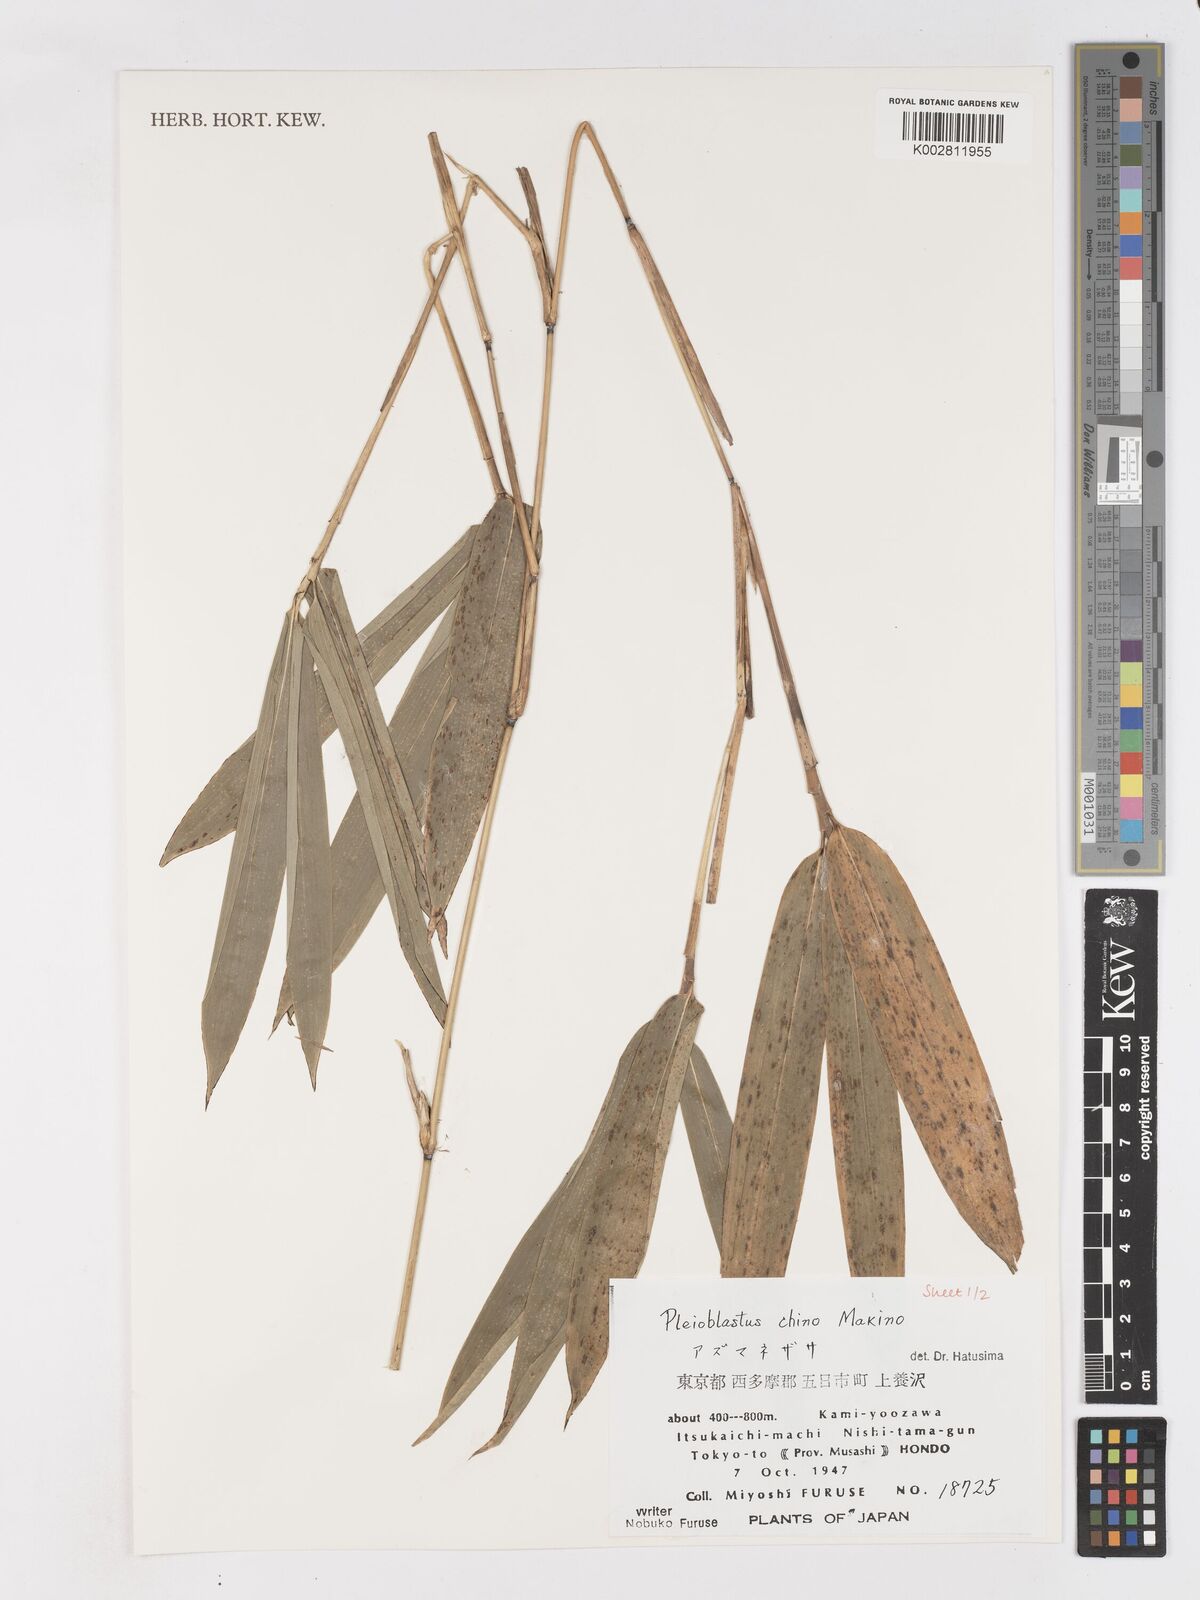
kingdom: Plantae
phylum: Tracheophyta
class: Liliopsida
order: Poales
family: Poaceae
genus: Pleioblastus
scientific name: Pleioblastus argenteostriatus
